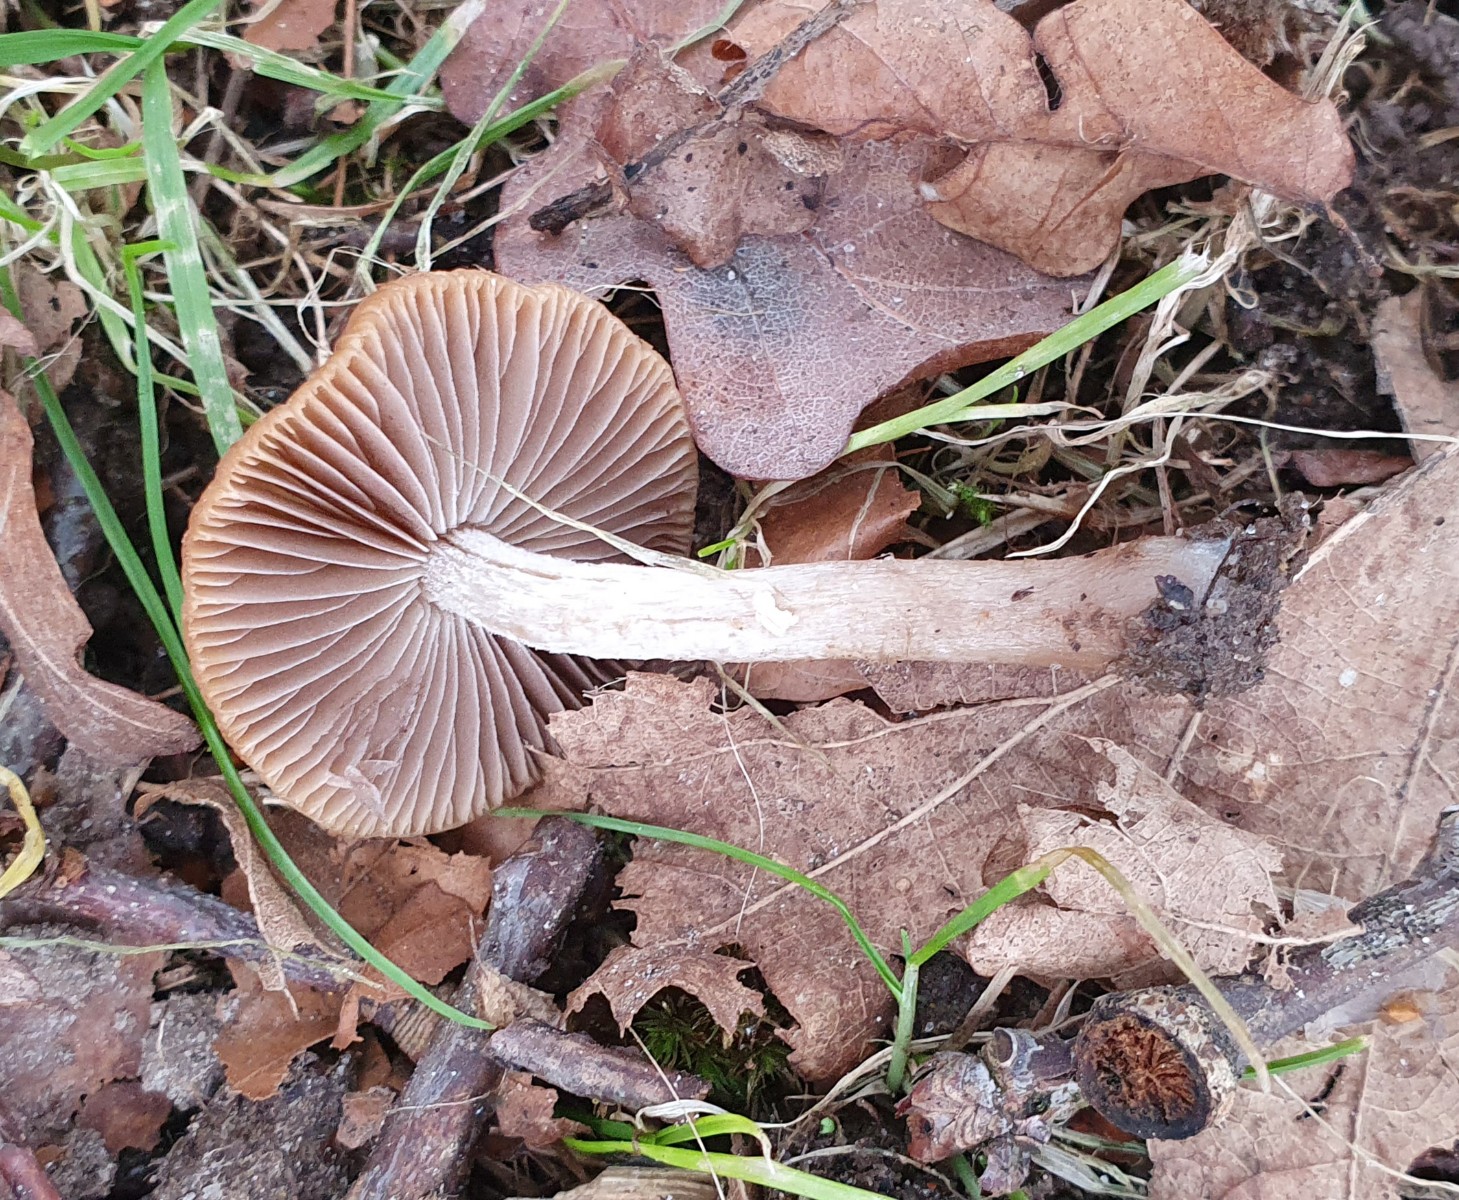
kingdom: Fungi
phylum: Basidiomycota
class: Agaricomycetes
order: Agaricales
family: Psathyrellaceae
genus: Psathyrella
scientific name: Psathyrella
